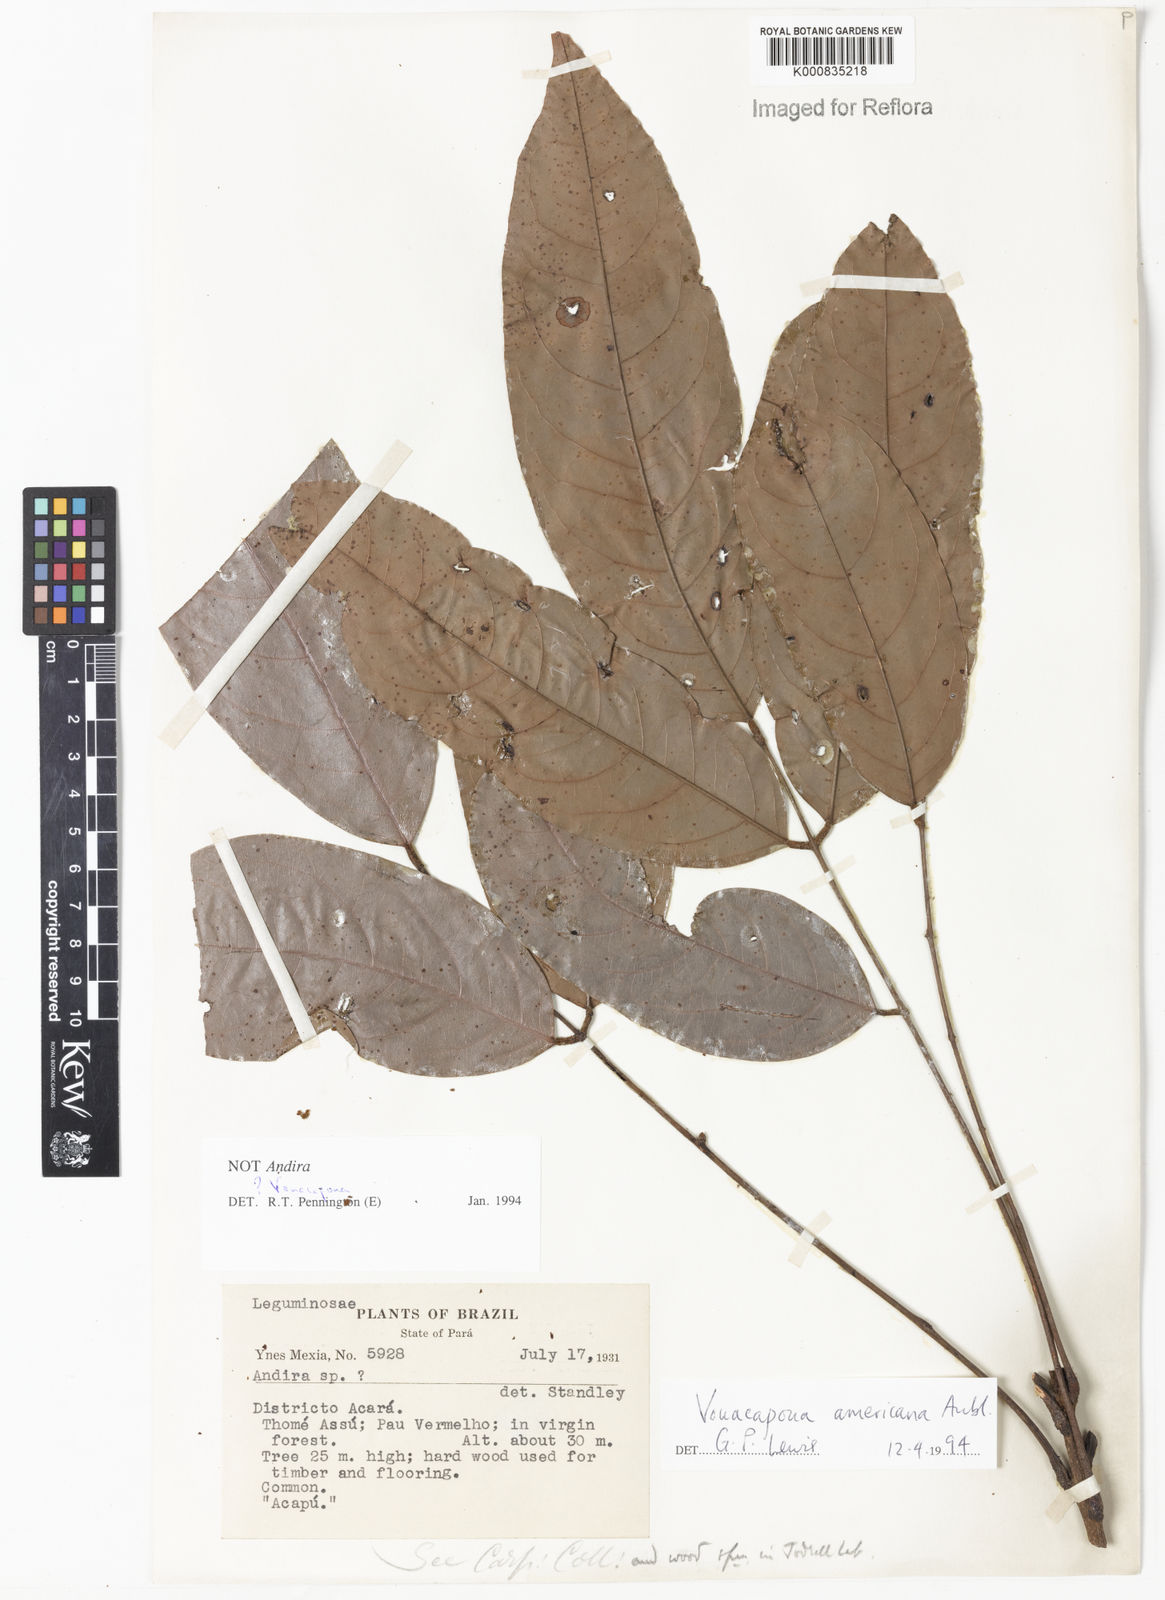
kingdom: Plantae
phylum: Tracheophyta
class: Magnoliopsida
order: Fabales
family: Fabaceae
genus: Andira
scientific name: Andira
